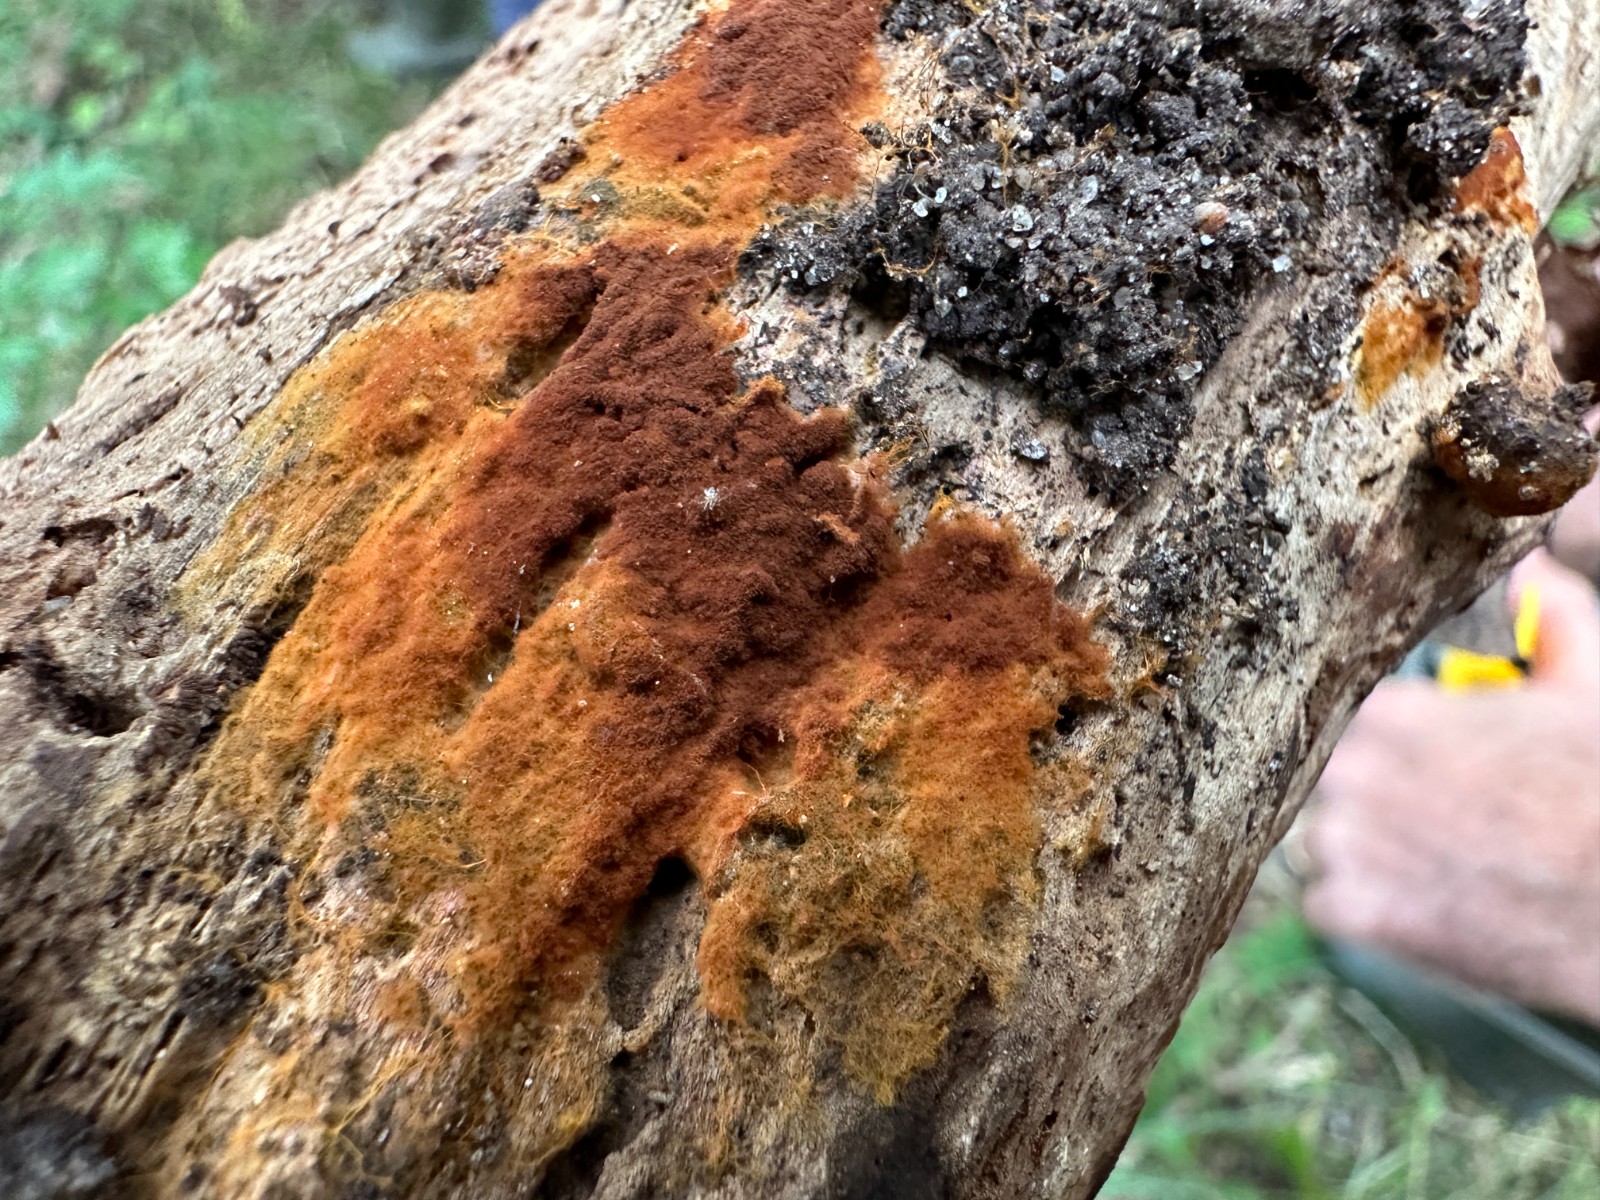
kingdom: Fungi
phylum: Basidiomycota
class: Agaricomycetes
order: Thelephorales
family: Thelephoraceae
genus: Tomentella
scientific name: Tomentella
